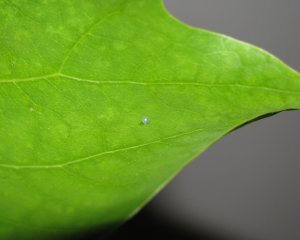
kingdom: Animalia
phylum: Arthropoda
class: Insecta
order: Lepidoptera
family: Papilionidae
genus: Pterourus
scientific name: Pterourus glaucus
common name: Eastern Tiger Swallowtail
